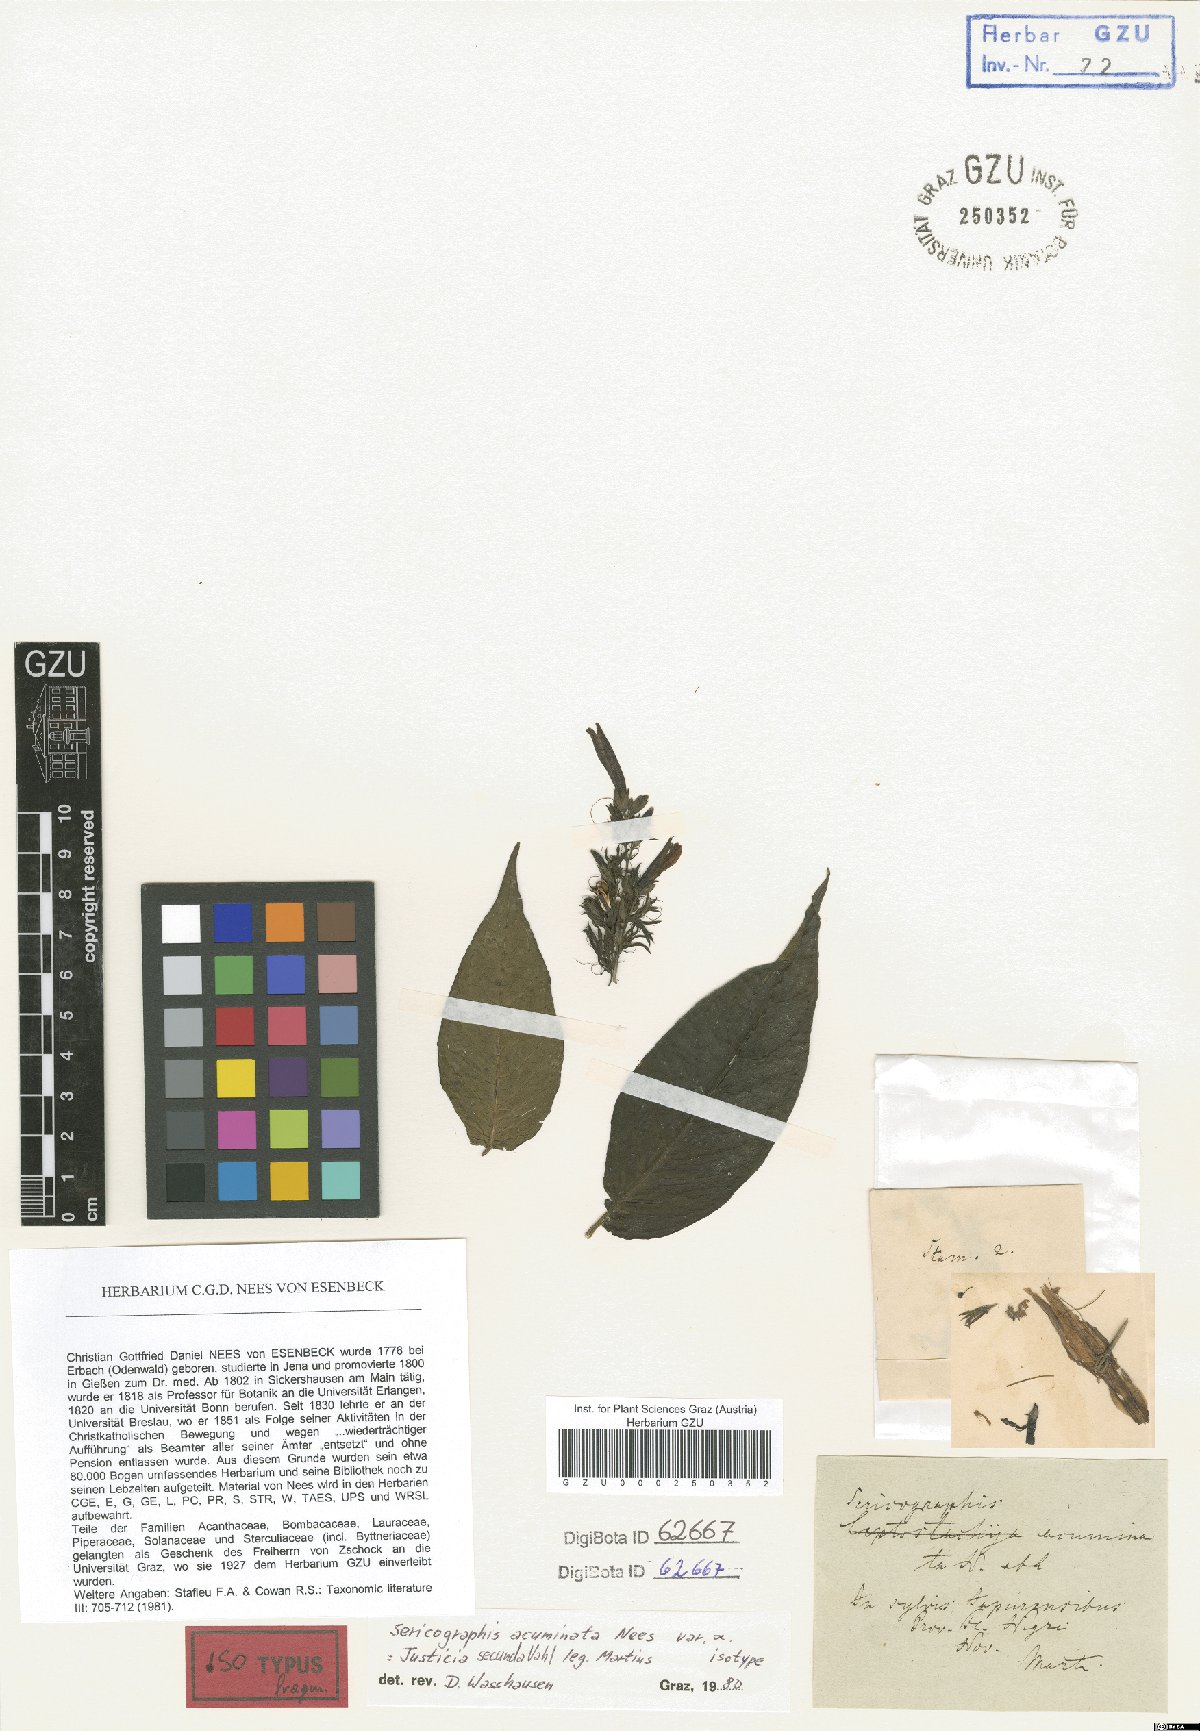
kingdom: Plantae
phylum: Tracheophyta
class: Magnoliopsida
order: Lamiales
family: Acanthaceae
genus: Justicia
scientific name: Justicia japurensis
